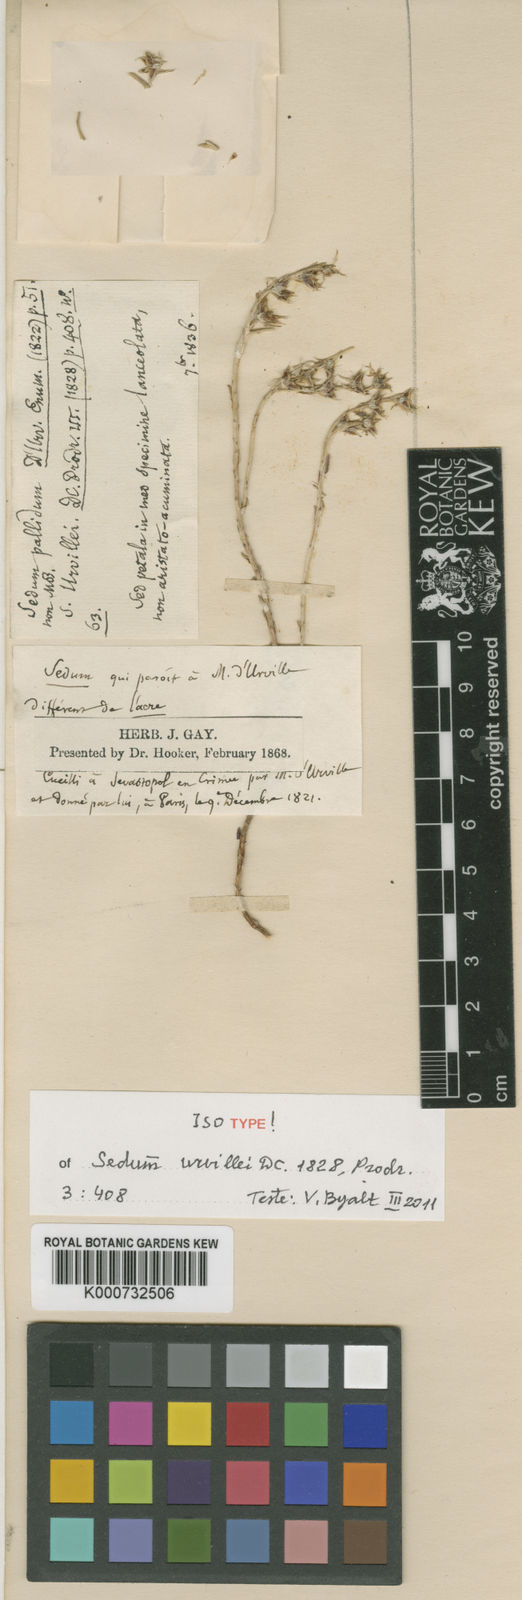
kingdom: Plantae
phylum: Tracheophyta
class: Magnoliopsida
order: Saxifragales
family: Crassulaceae
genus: Sedum
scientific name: Sedum urvillei
